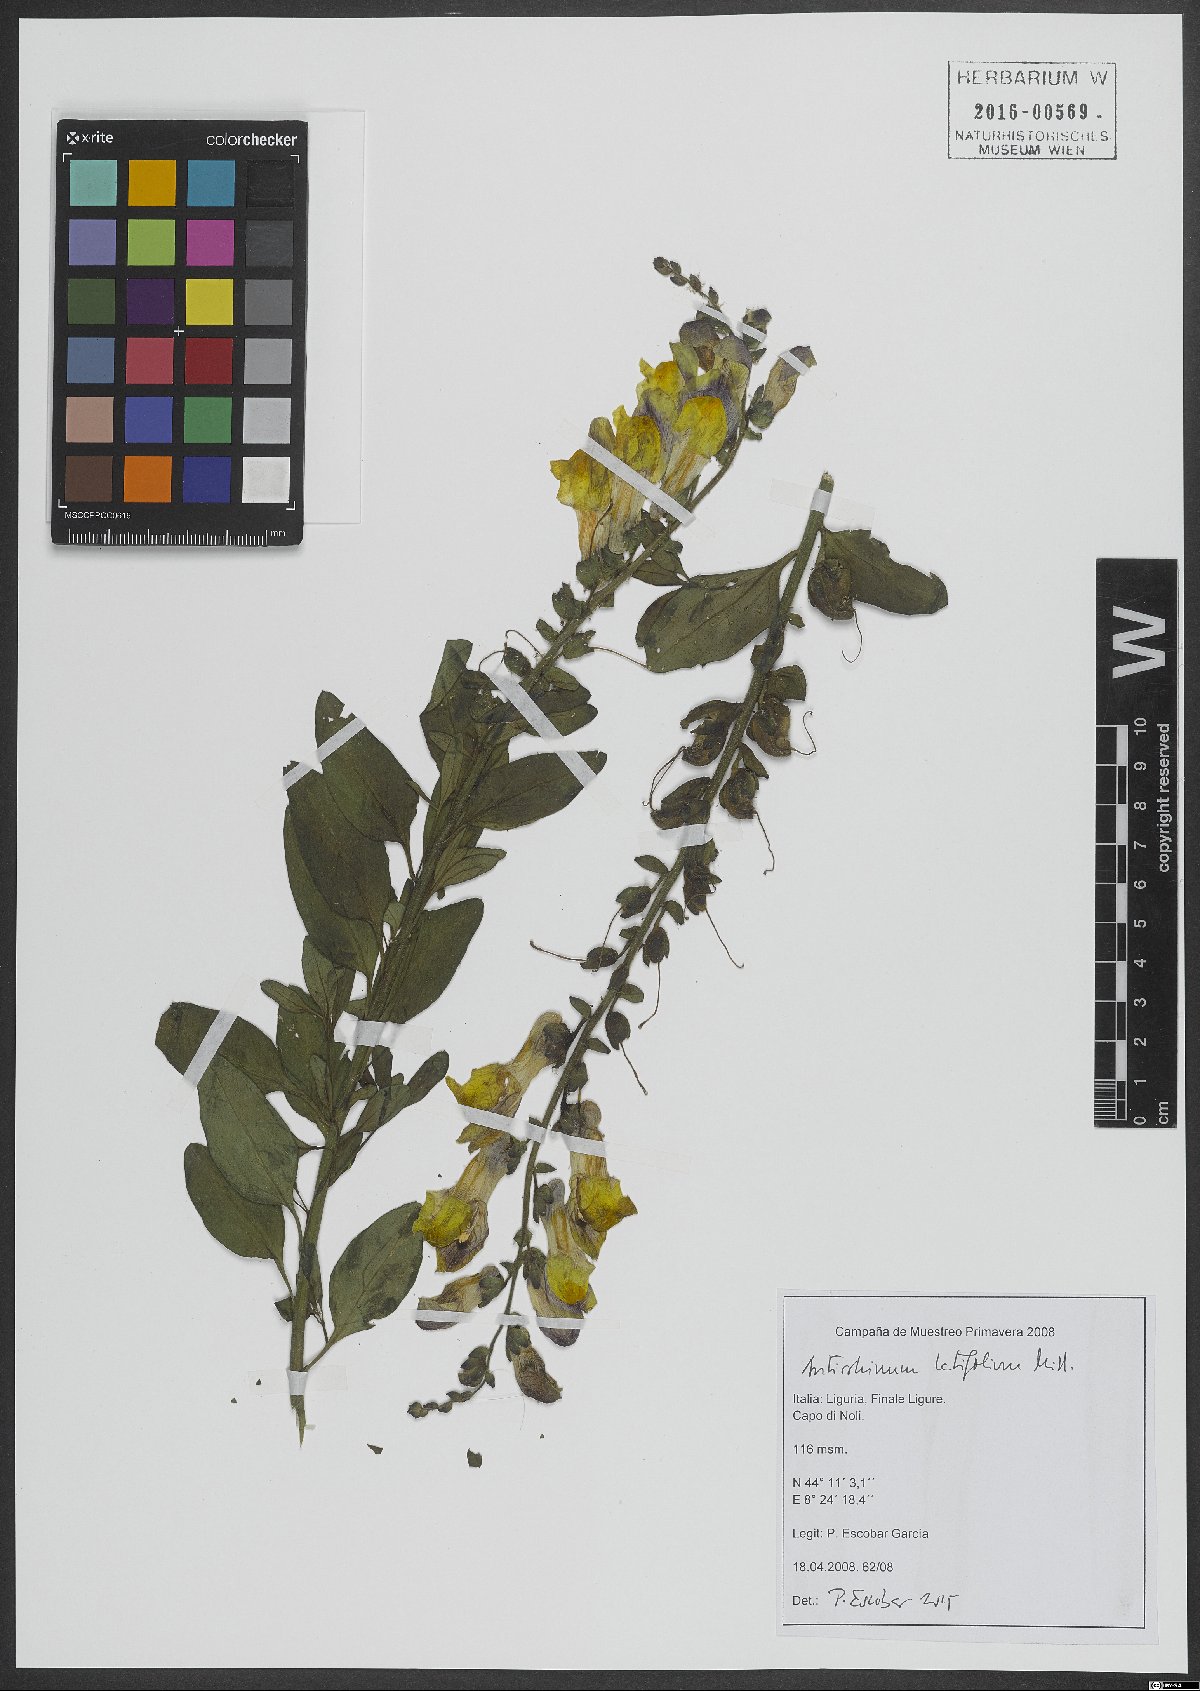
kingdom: Plantae
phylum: Tracheophyta
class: Magnoliopsida
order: Lamiales
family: Plantaginaceae
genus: Antirrhinum
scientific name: Antirrhinum latifolium
